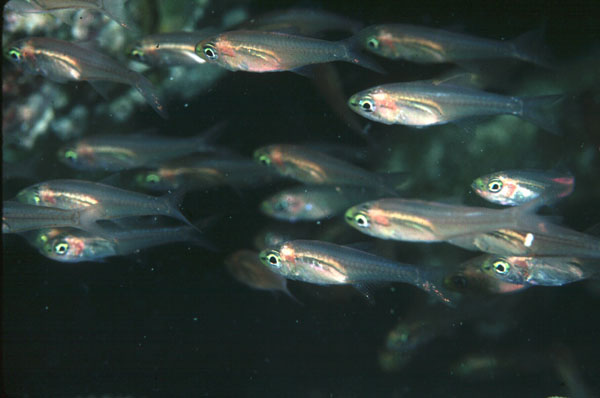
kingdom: Animalia
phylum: Chordata
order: Perciformes
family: Apogonidae
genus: Verulux
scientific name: Verulux cypselurus
